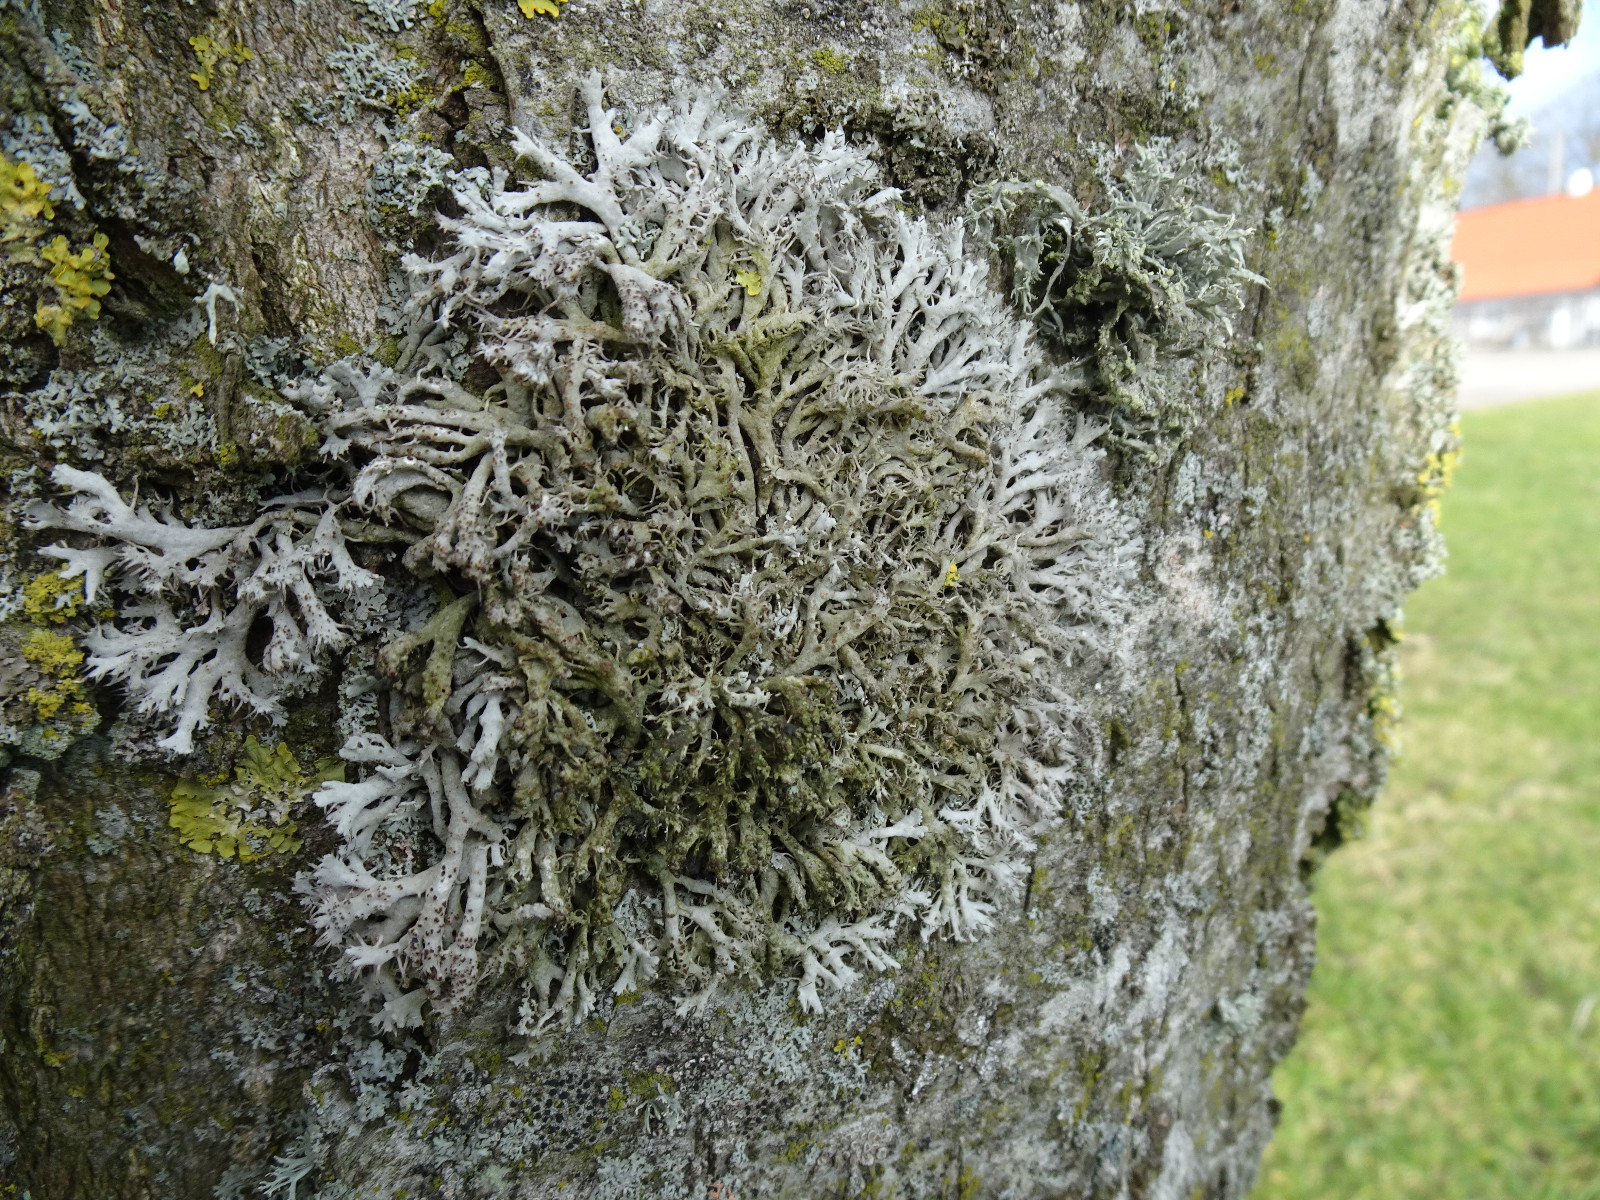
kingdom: Fungi
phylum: Ascomycota
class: Lecanoromycetes
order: Caliciales
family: Physciaceae
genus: Anaptychia
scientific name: Anaptychia ciliaris
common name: allé-frynselav
